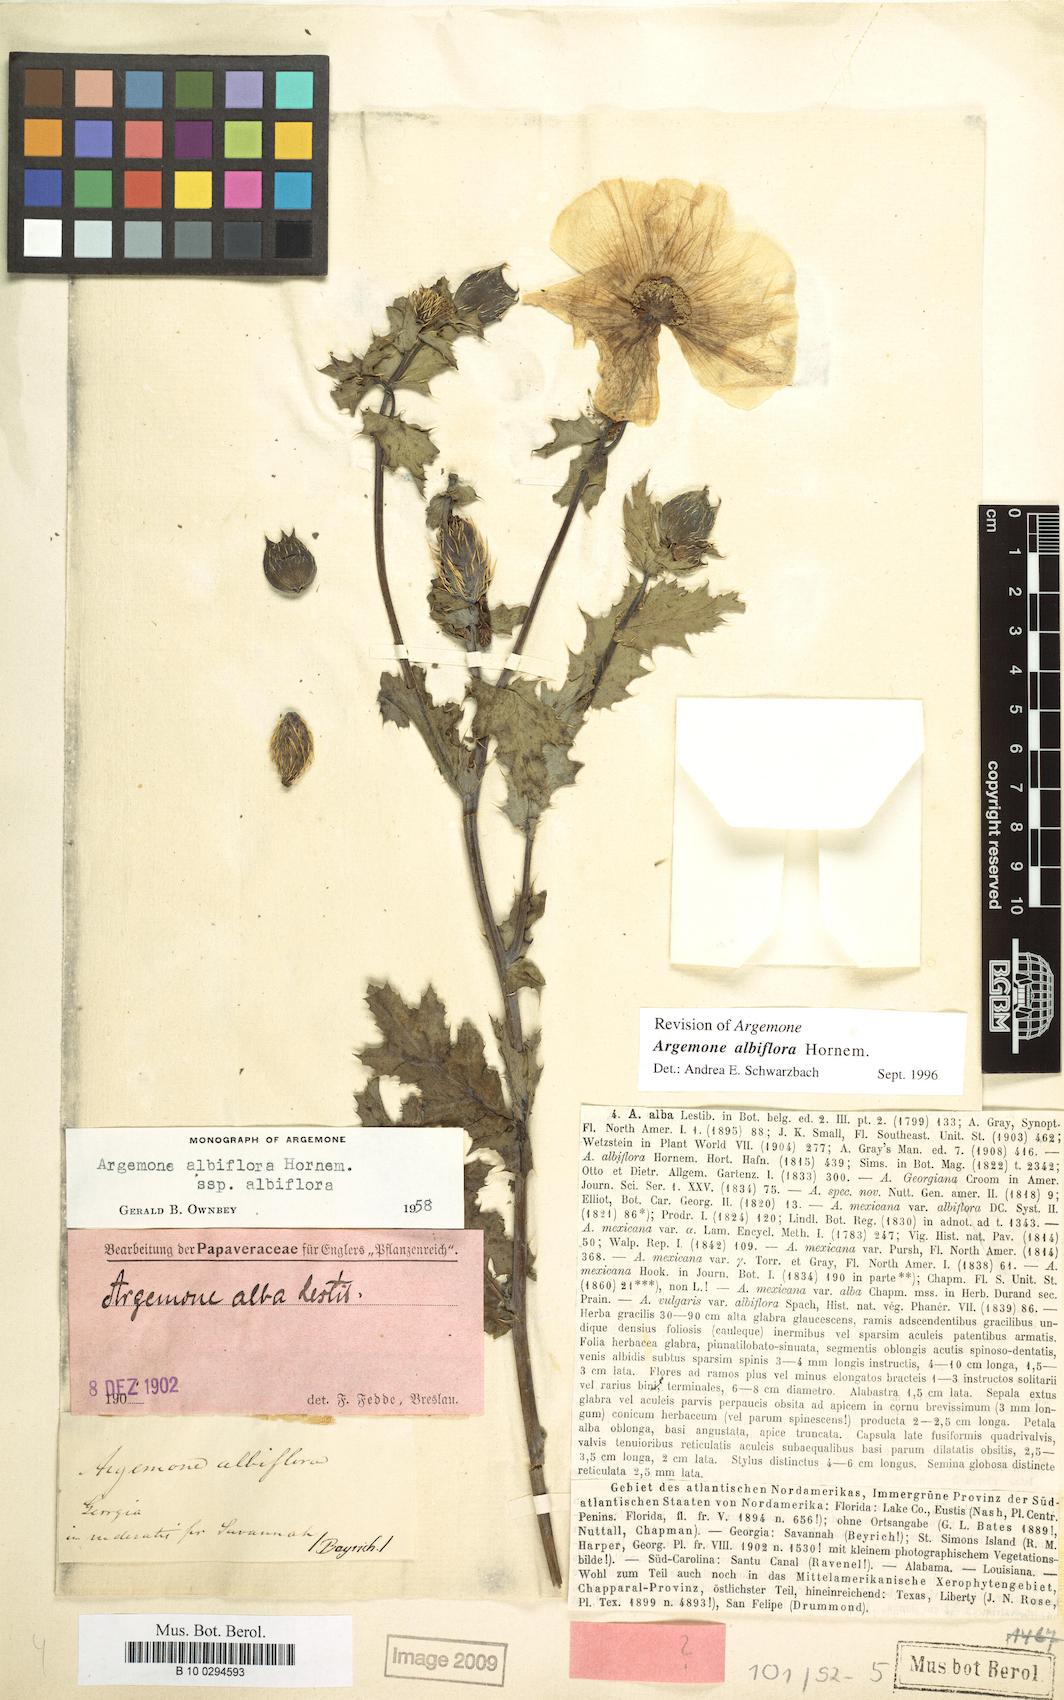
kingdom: Plantae
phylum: Tracheophyta
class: Magnoliopsida
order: Ranunculales
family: Papaveraceae
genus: Argemone
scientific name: Argemone albiflora
